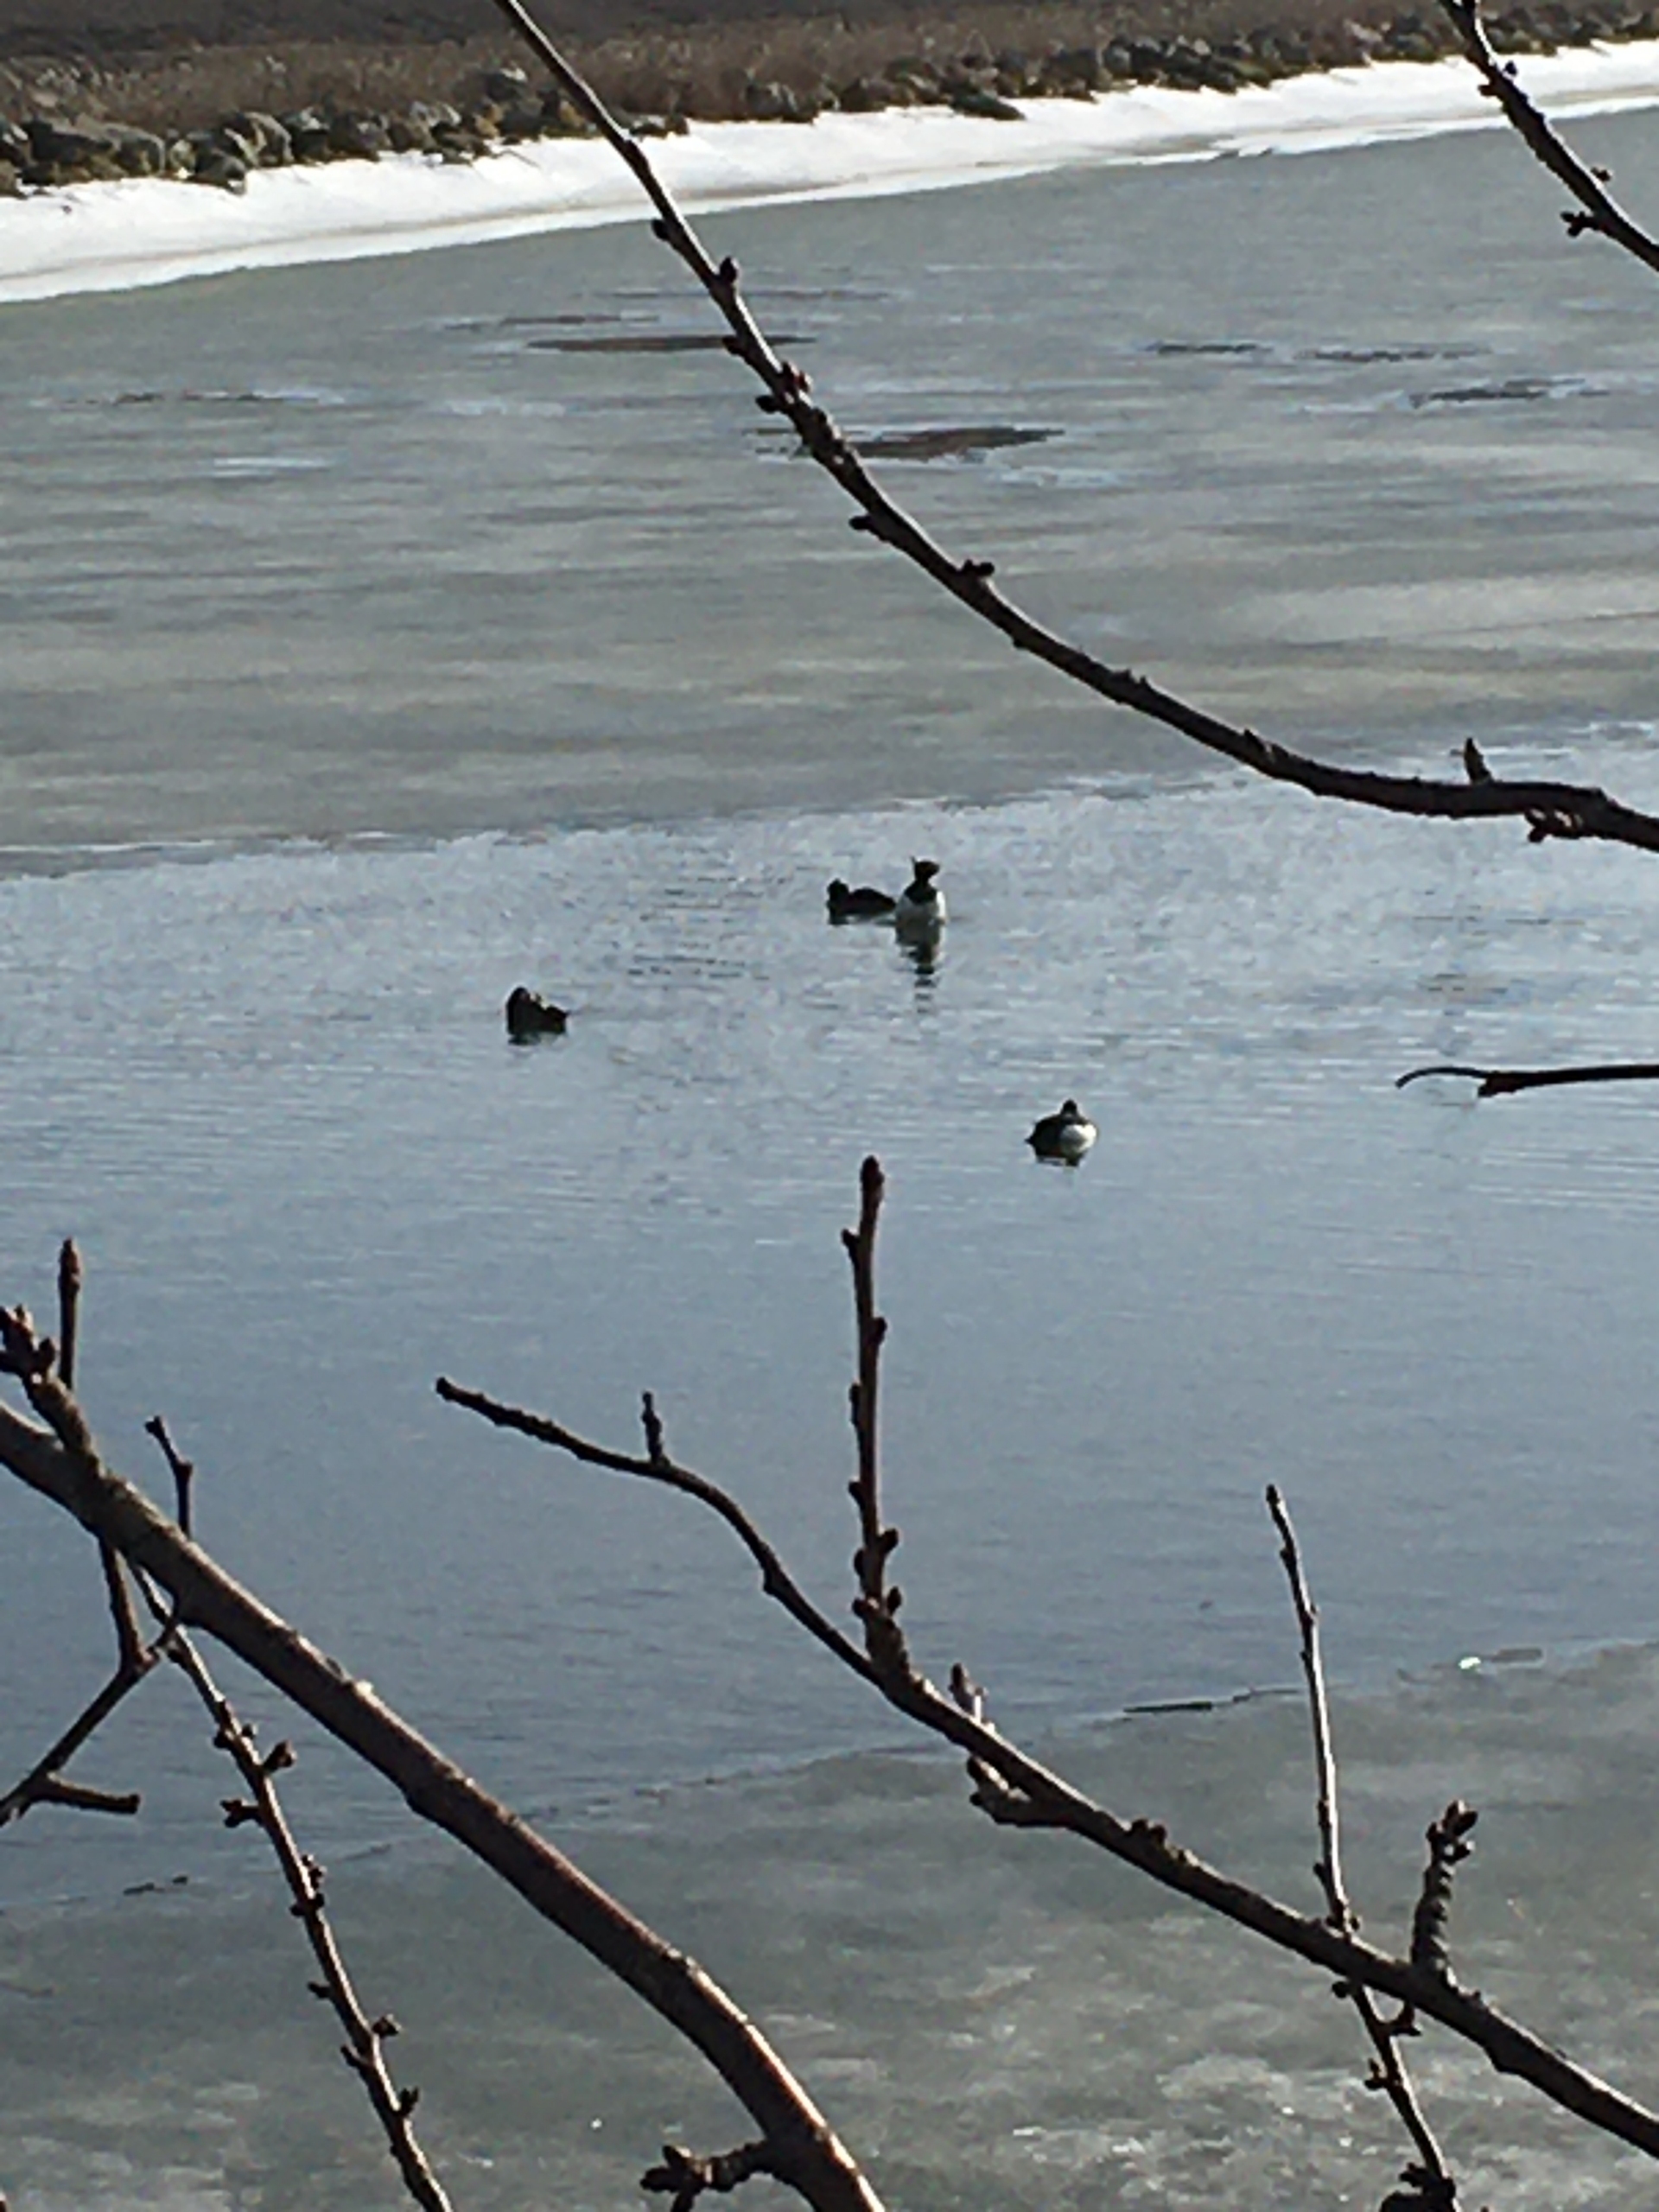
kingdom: Animalia
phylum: Chordata
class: Aves
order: Anseriformes
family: Anatidae
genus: Aythya
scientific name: Aythya fuligula
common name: Troldand
